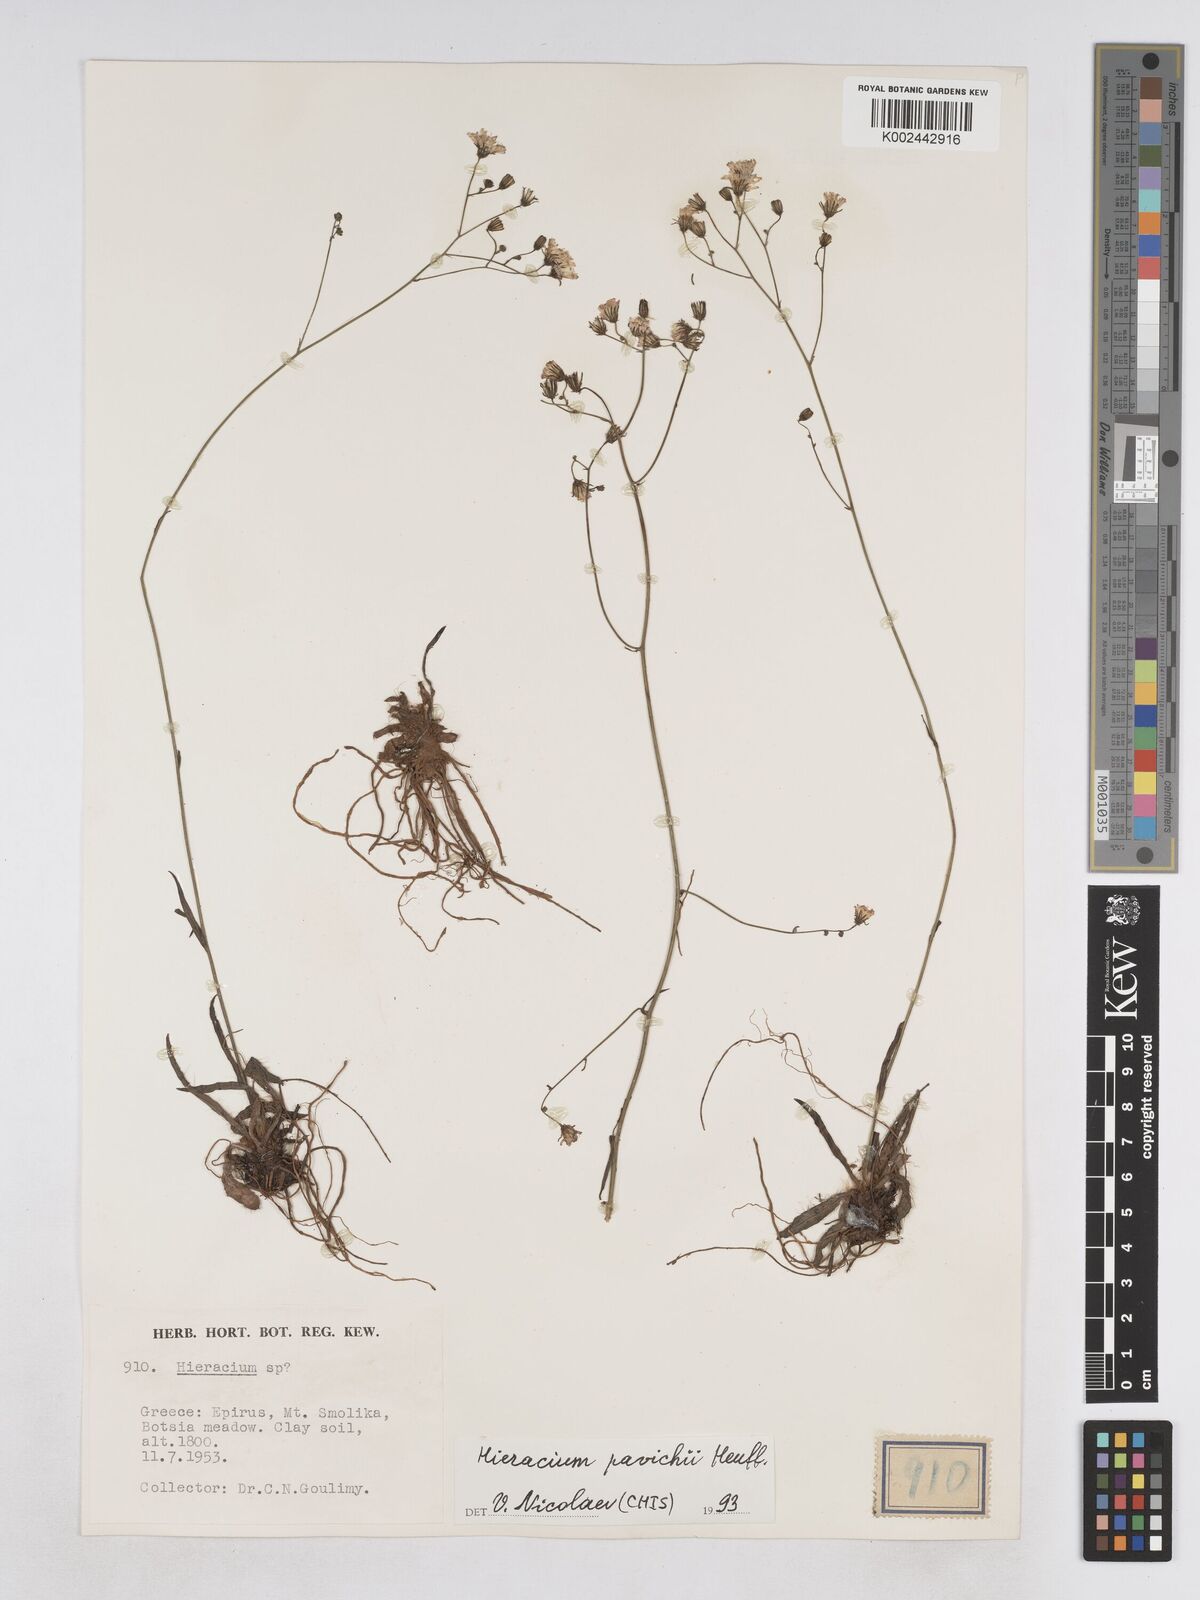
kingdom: Plantae
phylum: Tracheophyta
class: Magnoliopsida
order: Asterales
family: Asteraceae
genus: Pilosella
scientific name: Pilosella pavichii
